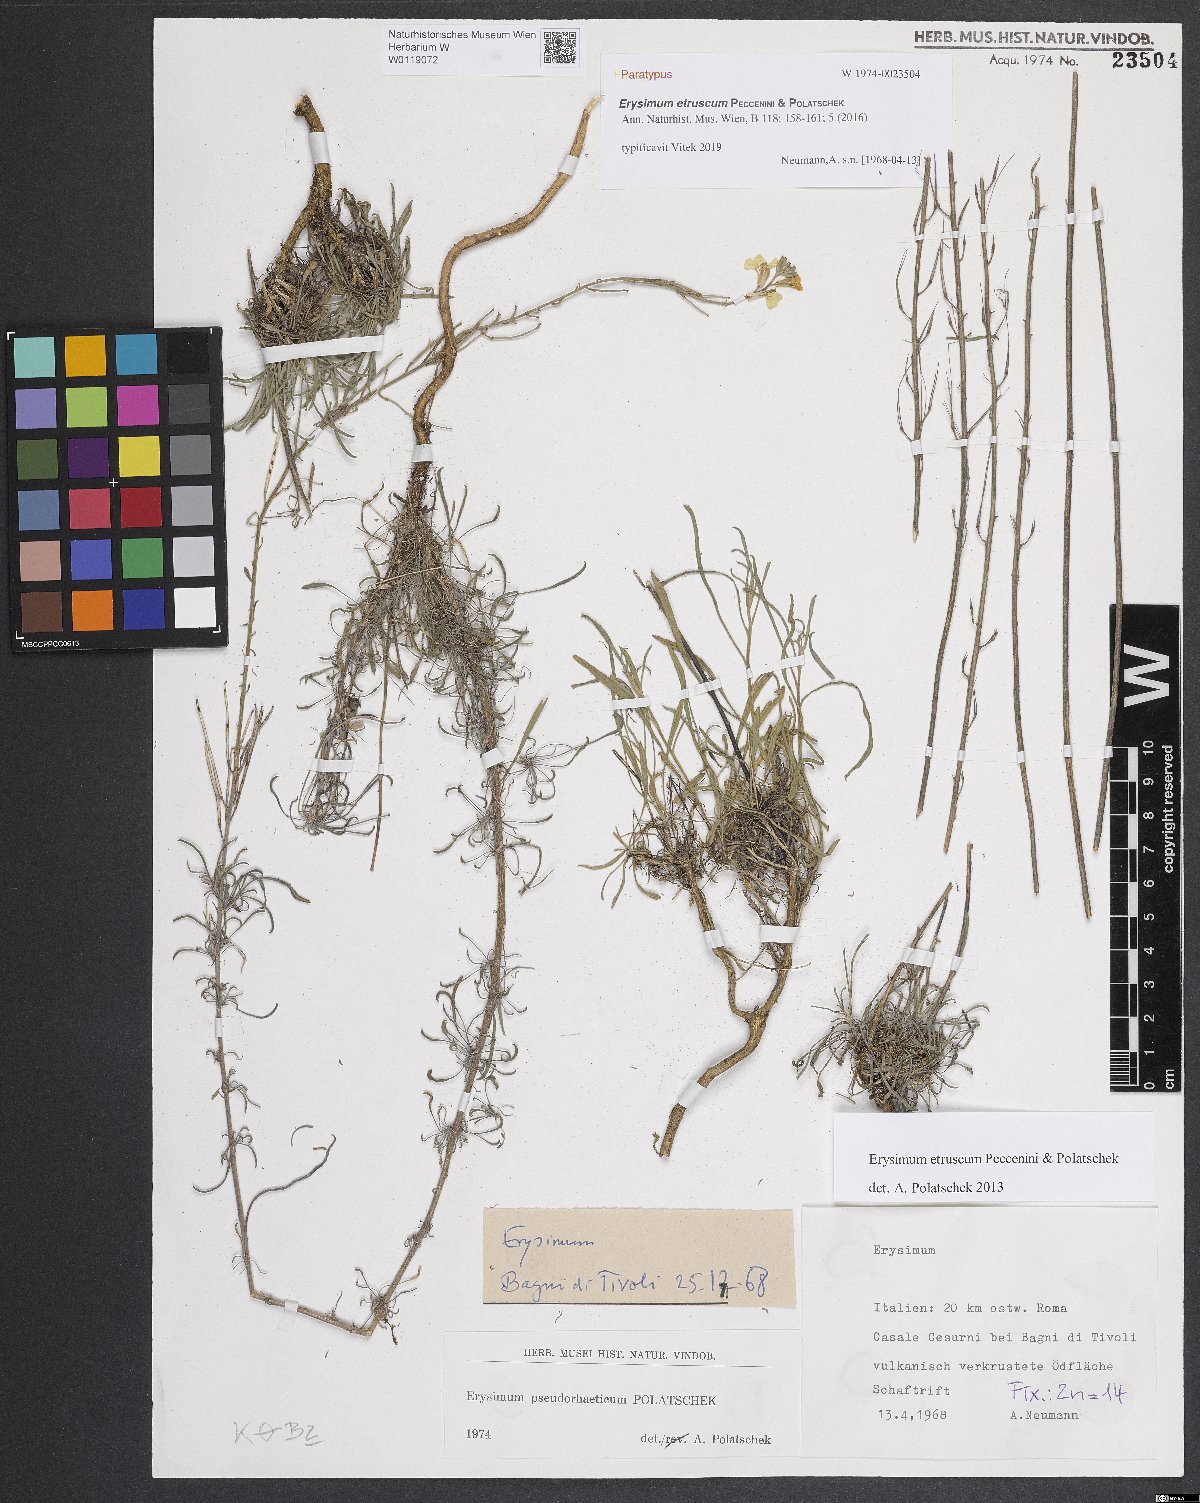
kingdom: Plantae
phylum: Tracheophyta
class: Magnoliopsida
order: Brassicales
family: Brassicaceae
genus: Erysimum
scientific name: Erysimum pseudorhaeticum
